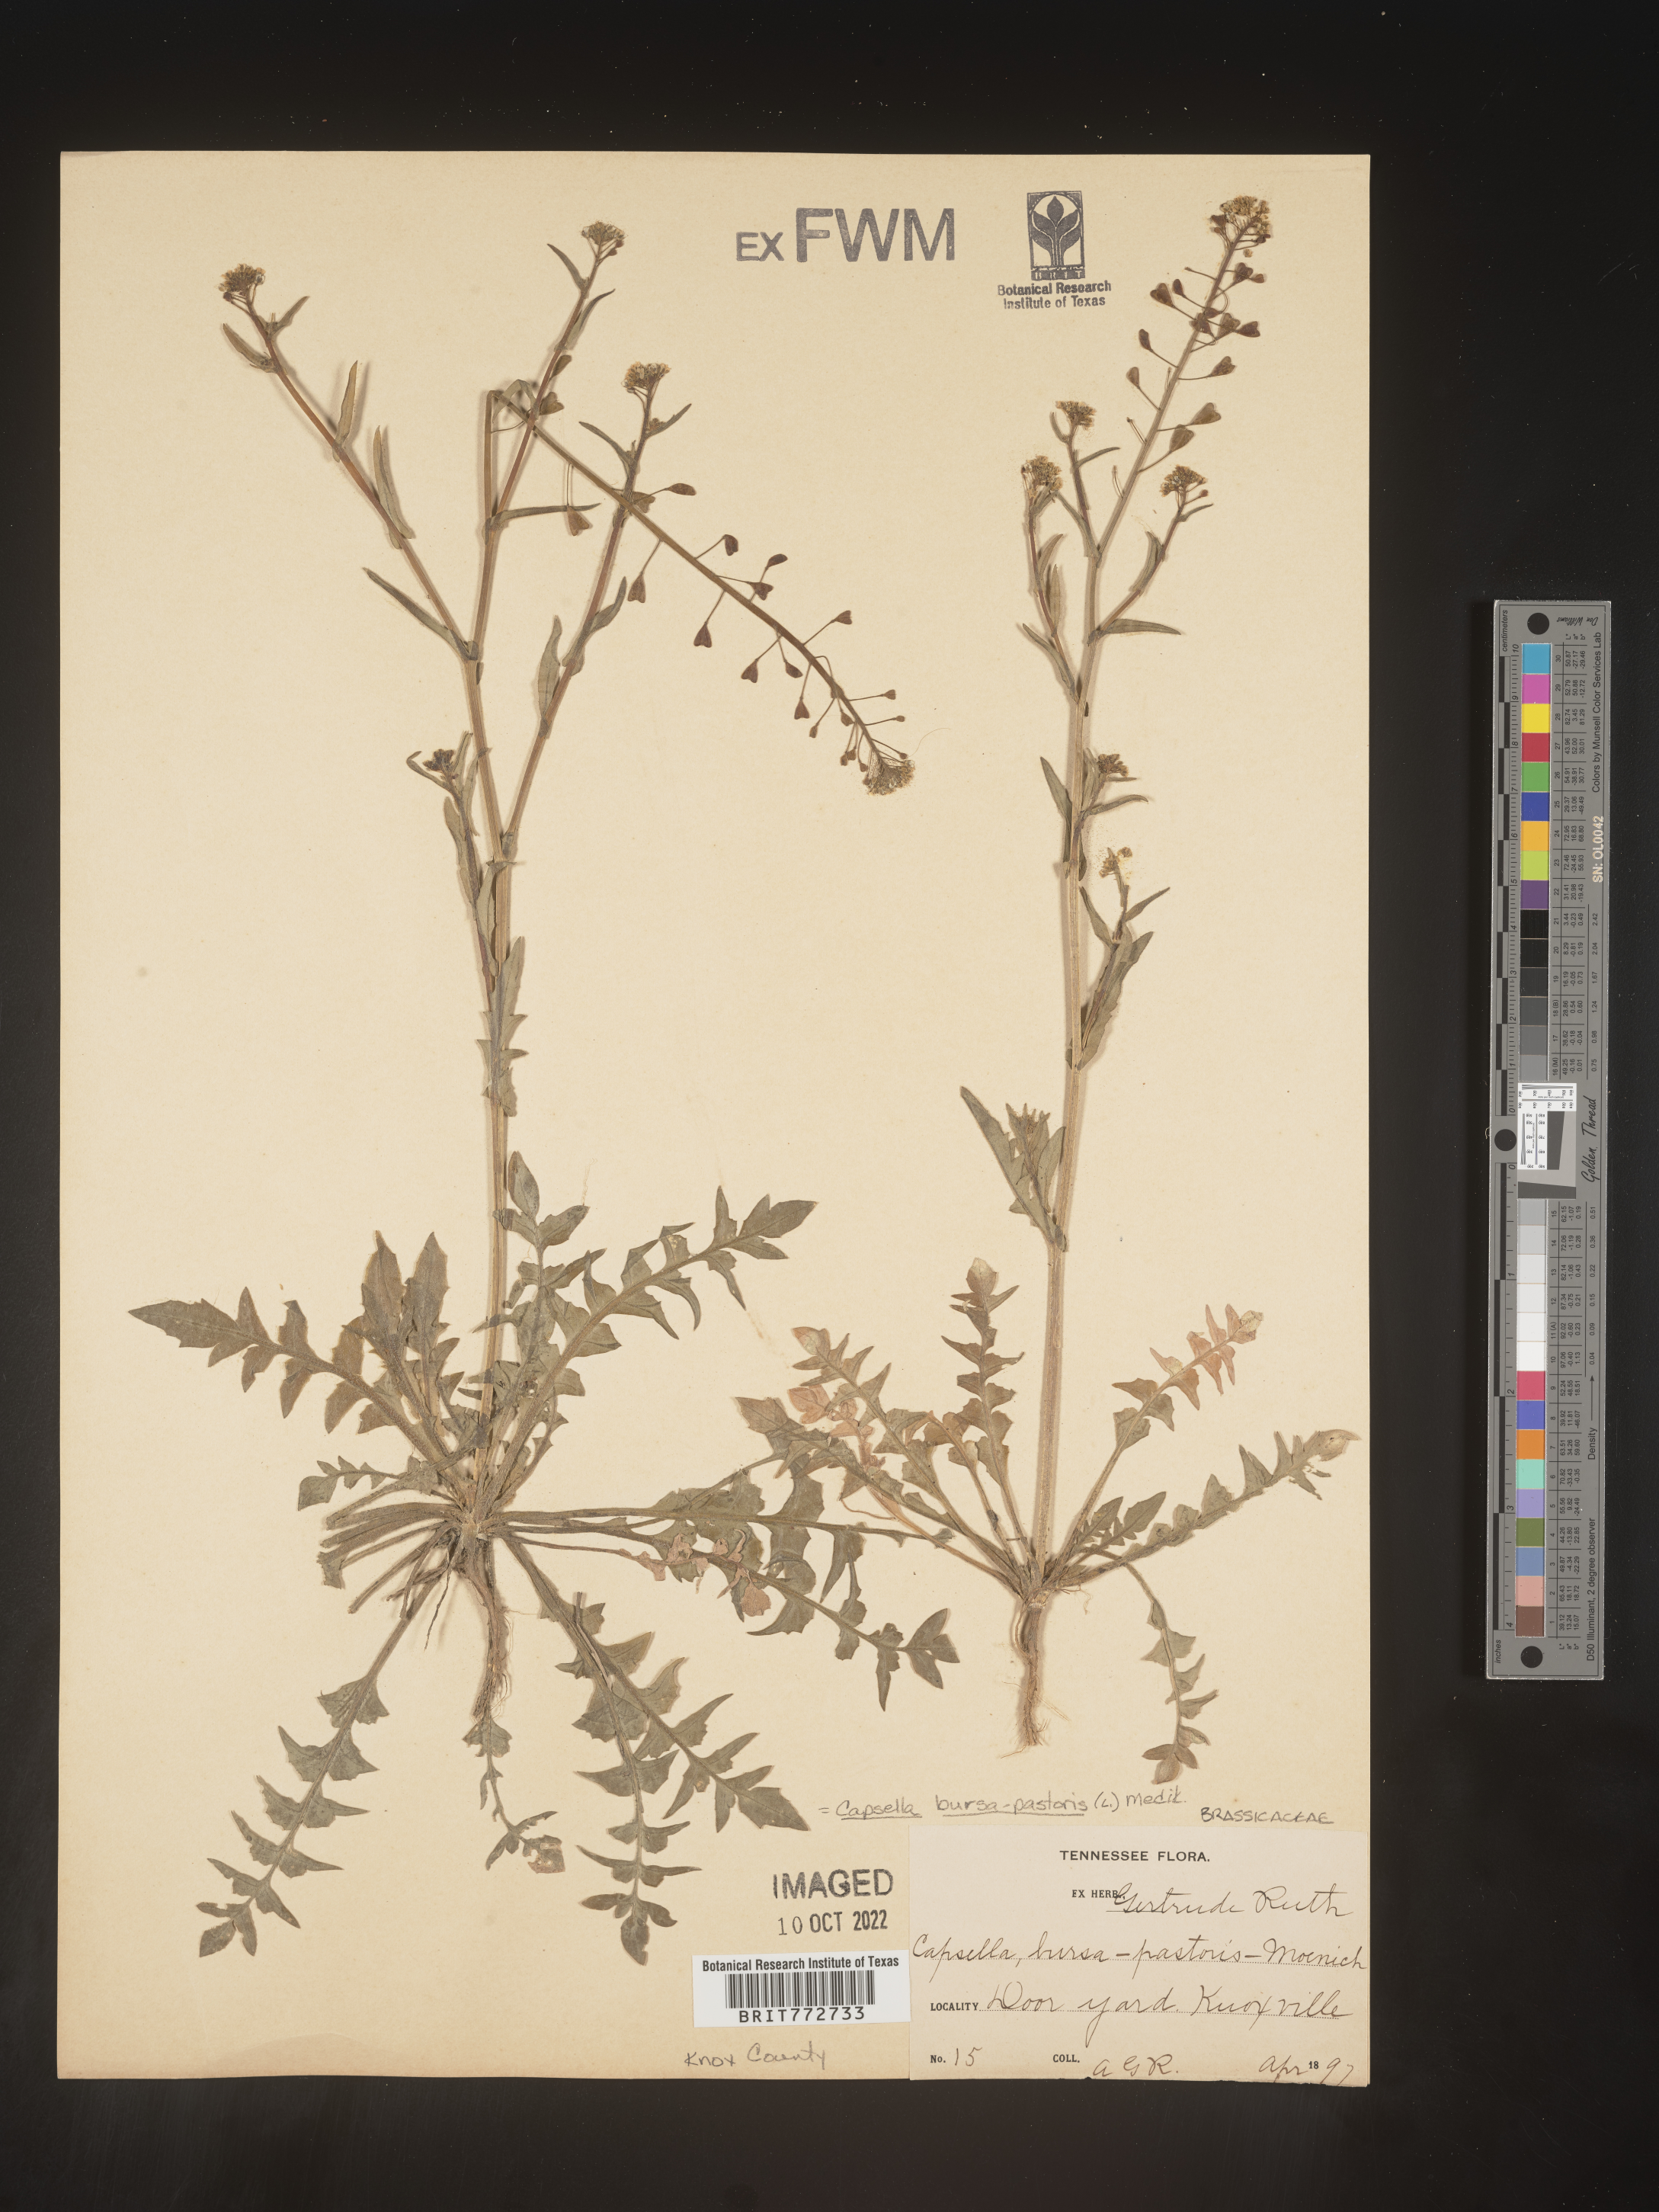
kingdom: Plantae
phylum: Tracheophyta
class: Magnoliopsida
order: Brassicales
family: Brassicaceae
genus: Capsella
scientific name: Capsella bursa-pastoris
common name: Shepherd's purse
